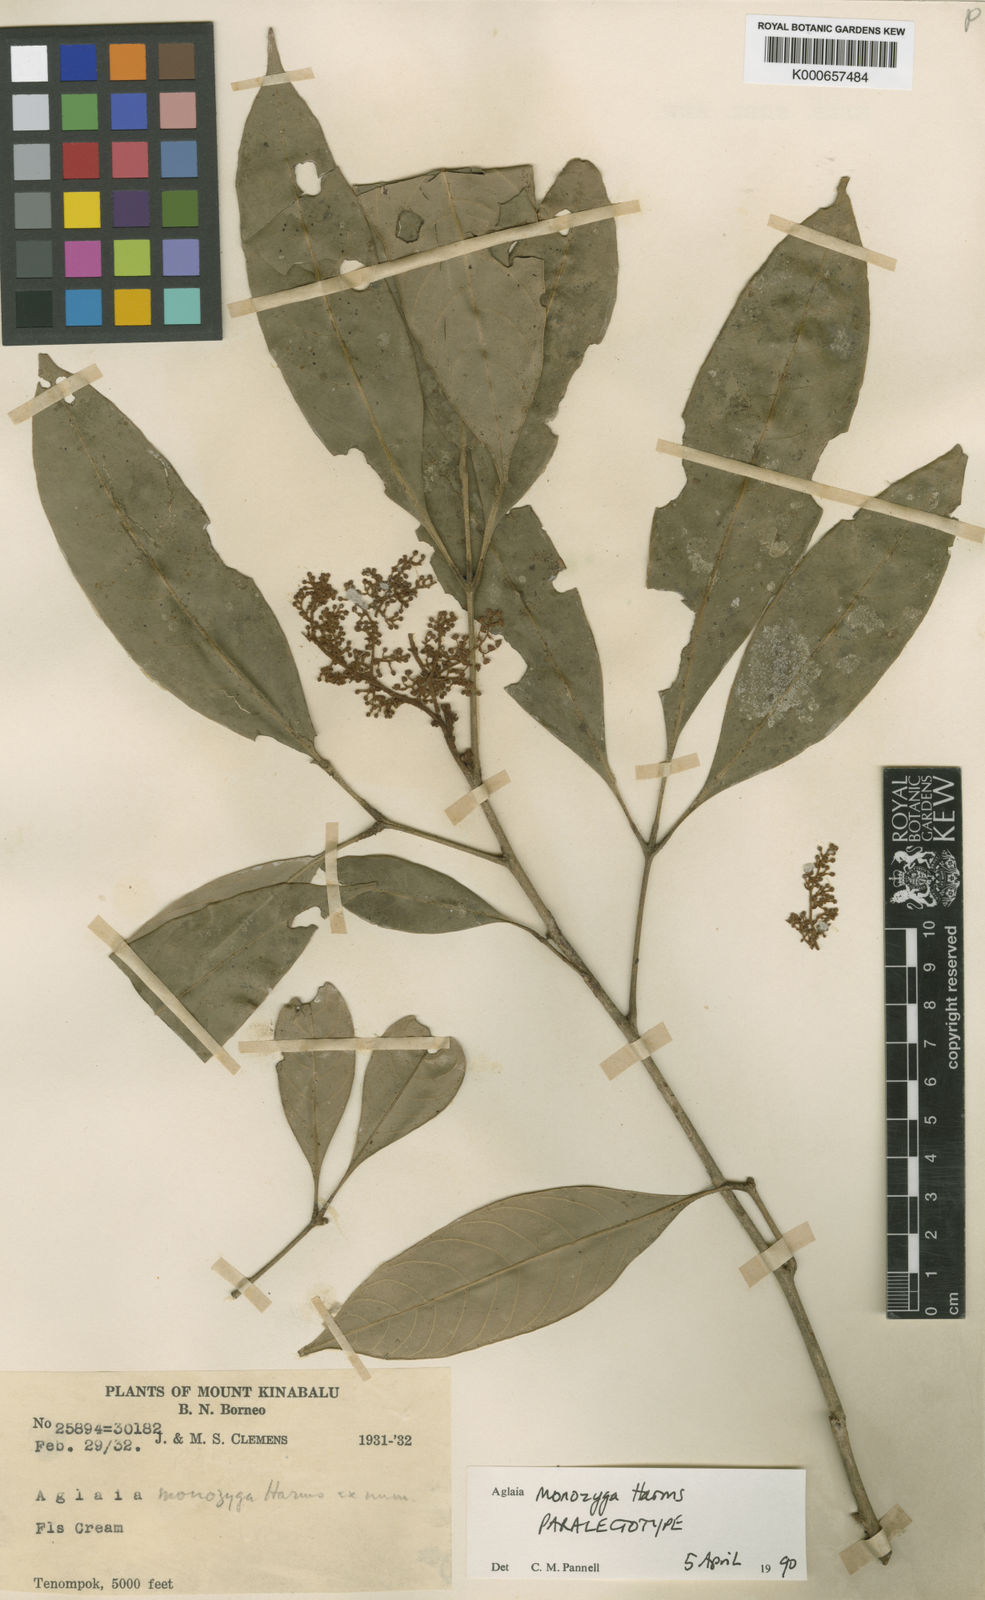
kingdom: Plantae
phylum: Tracheophyta
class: Magnoliopsida
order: Sapindales
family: Meliaceae
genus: Aglaia
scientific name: Aglaia monozyga
